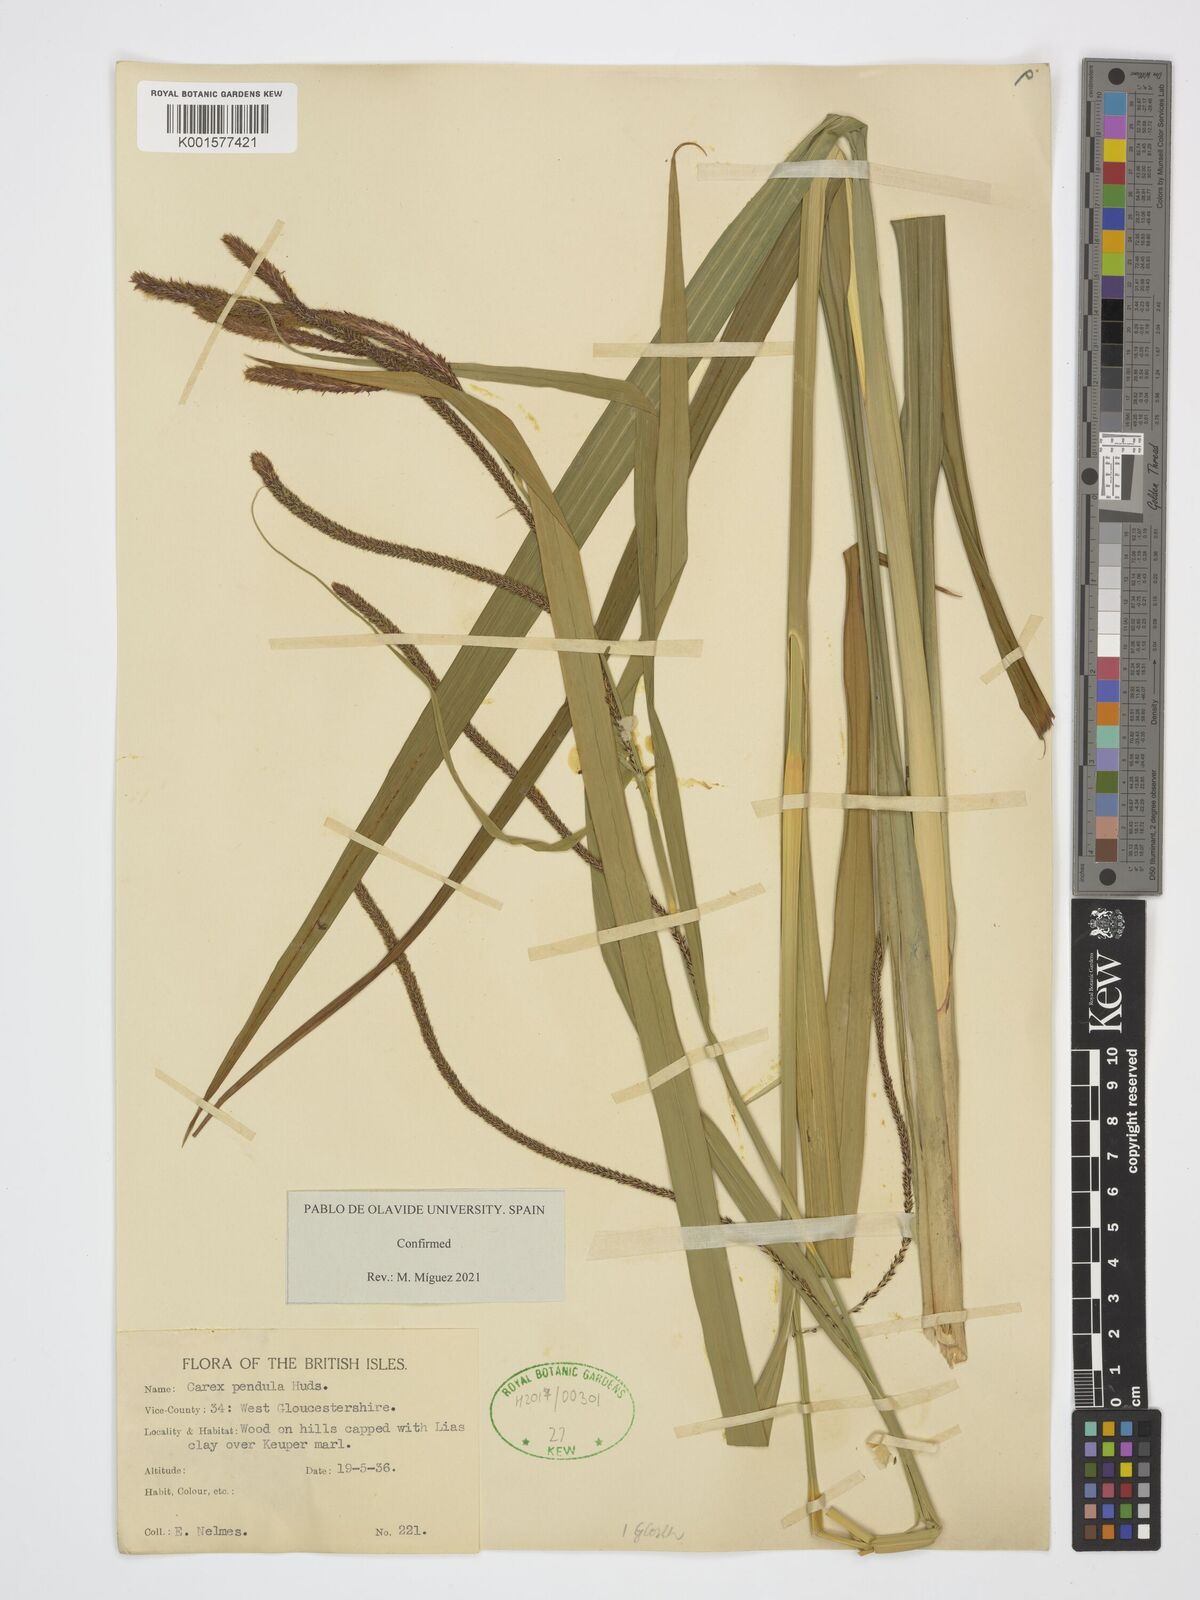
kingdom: Plantae
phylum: Tracheophyta
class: Liliopsida
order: Poales
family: Cyperaceae
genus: Carex
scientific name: Carex pendula
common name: Pendulous sedge
